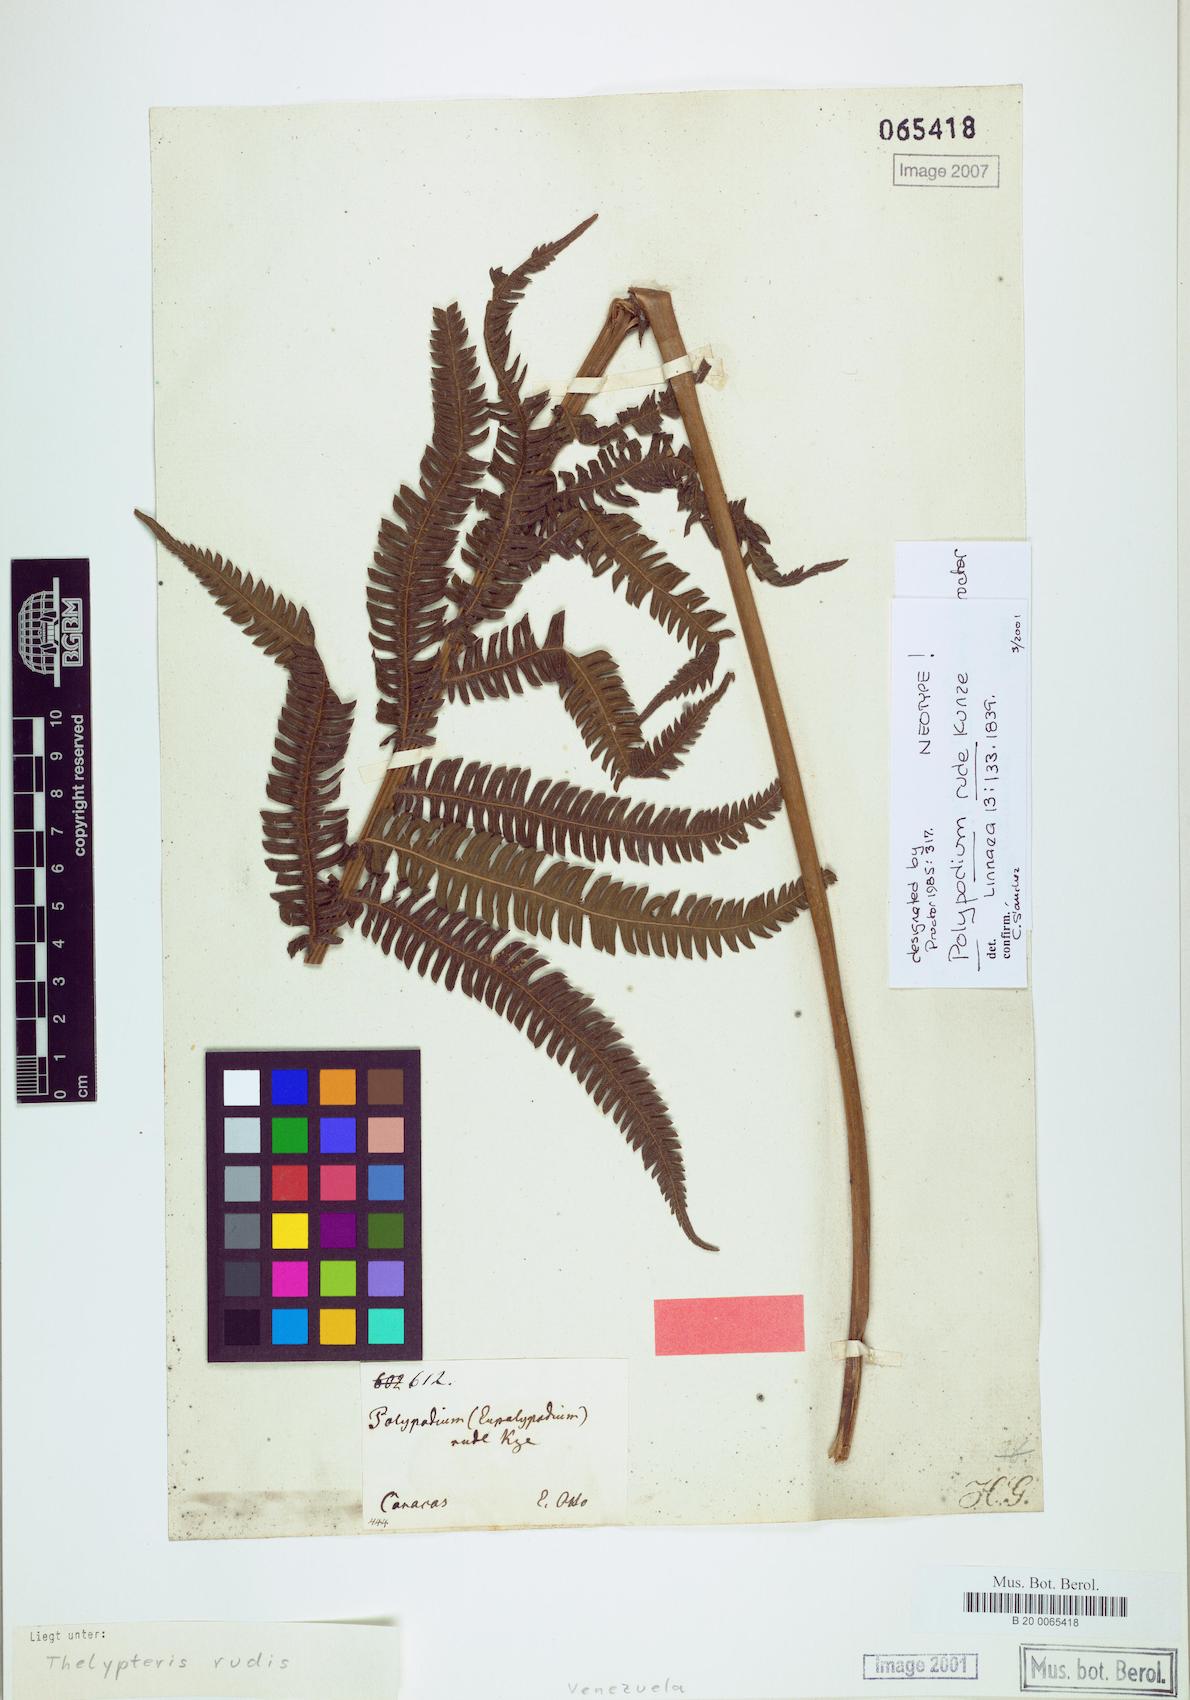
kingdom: Plantae
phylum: Tracheophyta
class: Polypodiopsida
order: Polypodiales
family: Thelypteridaceae
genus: Amauropelta
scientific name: Amauropelta rudis
